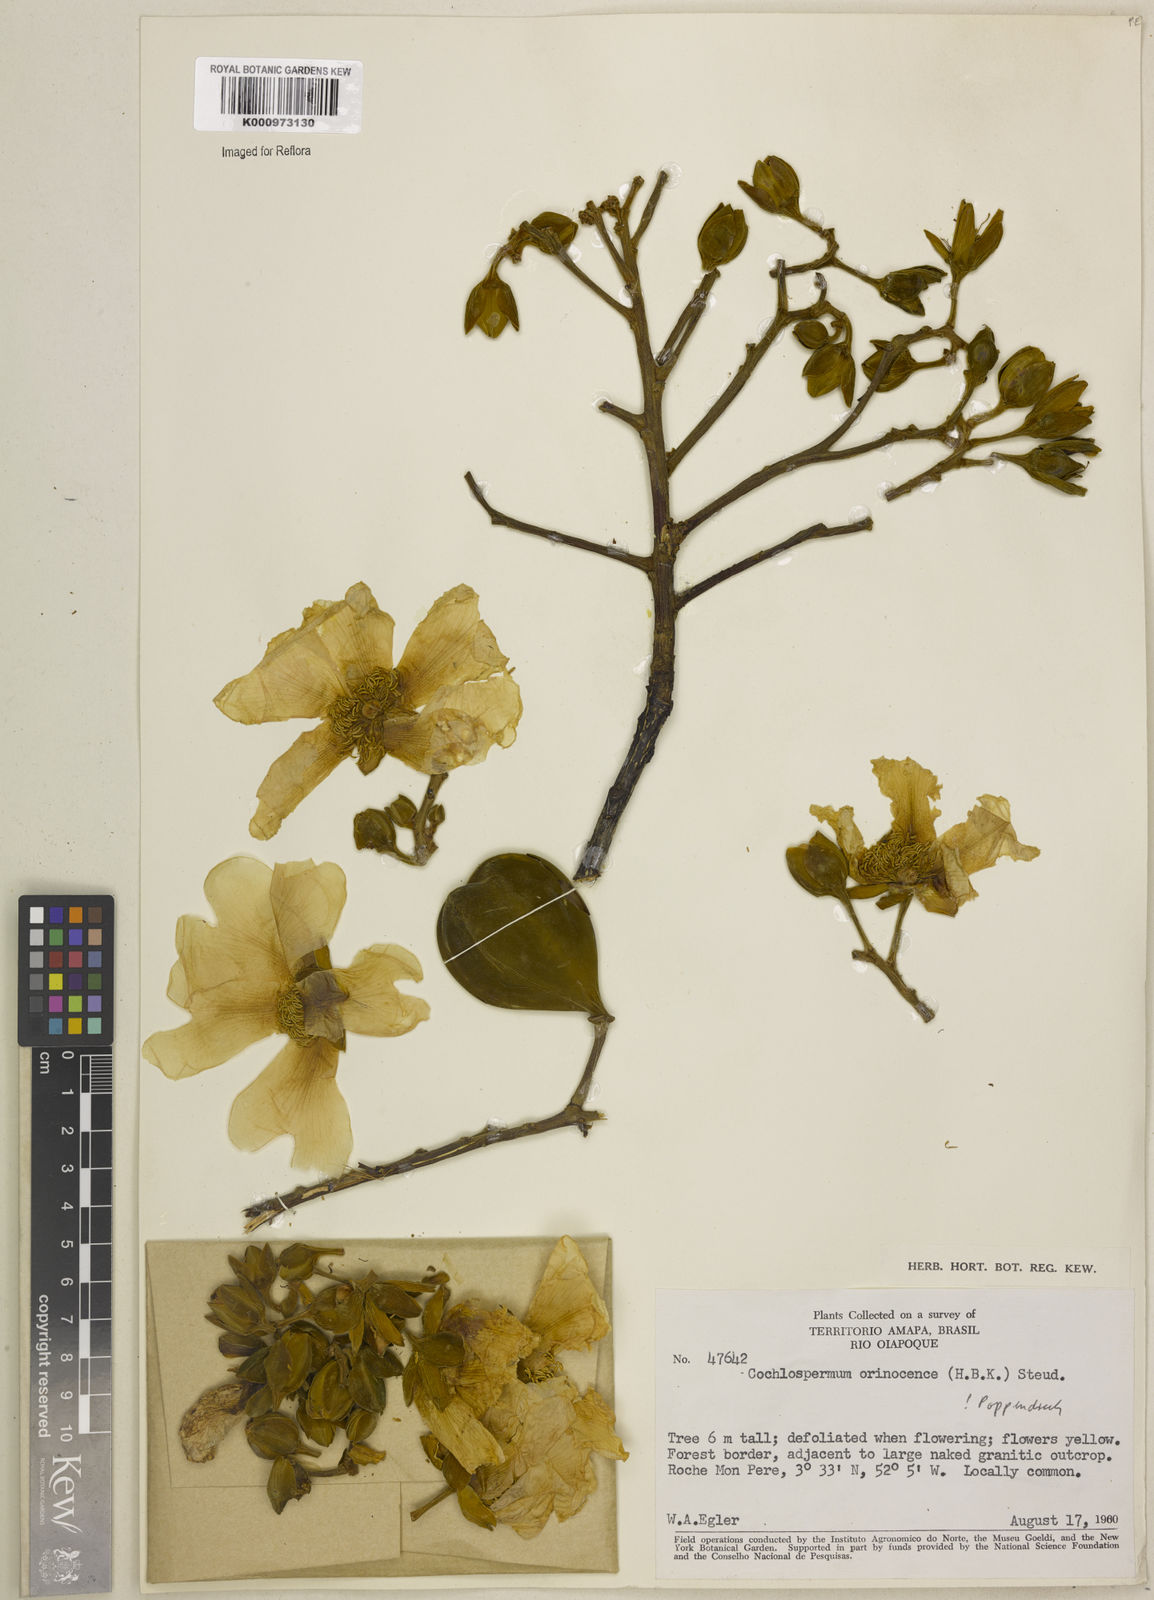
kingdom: Plantae
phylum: Tracheophyta
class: Magnoliopsida
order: Malvales
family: Cochlospermaceae
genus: Cochlospermum
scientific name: Cochlospermum orinocense
